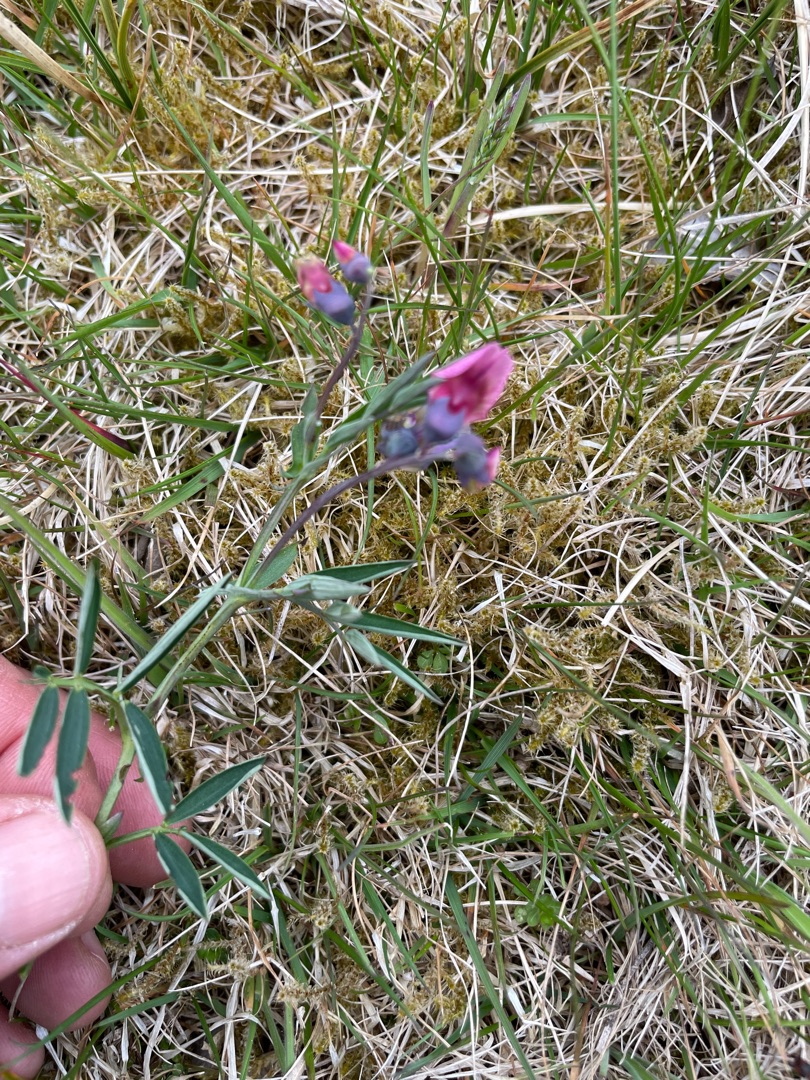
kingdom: Plantae
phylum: Tracheophyta
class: Magnoliopsida
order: Fabales
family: Fabaceae
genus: Lathyrus
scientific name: Lathyrus linifolius
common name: Krat-fladbælg
